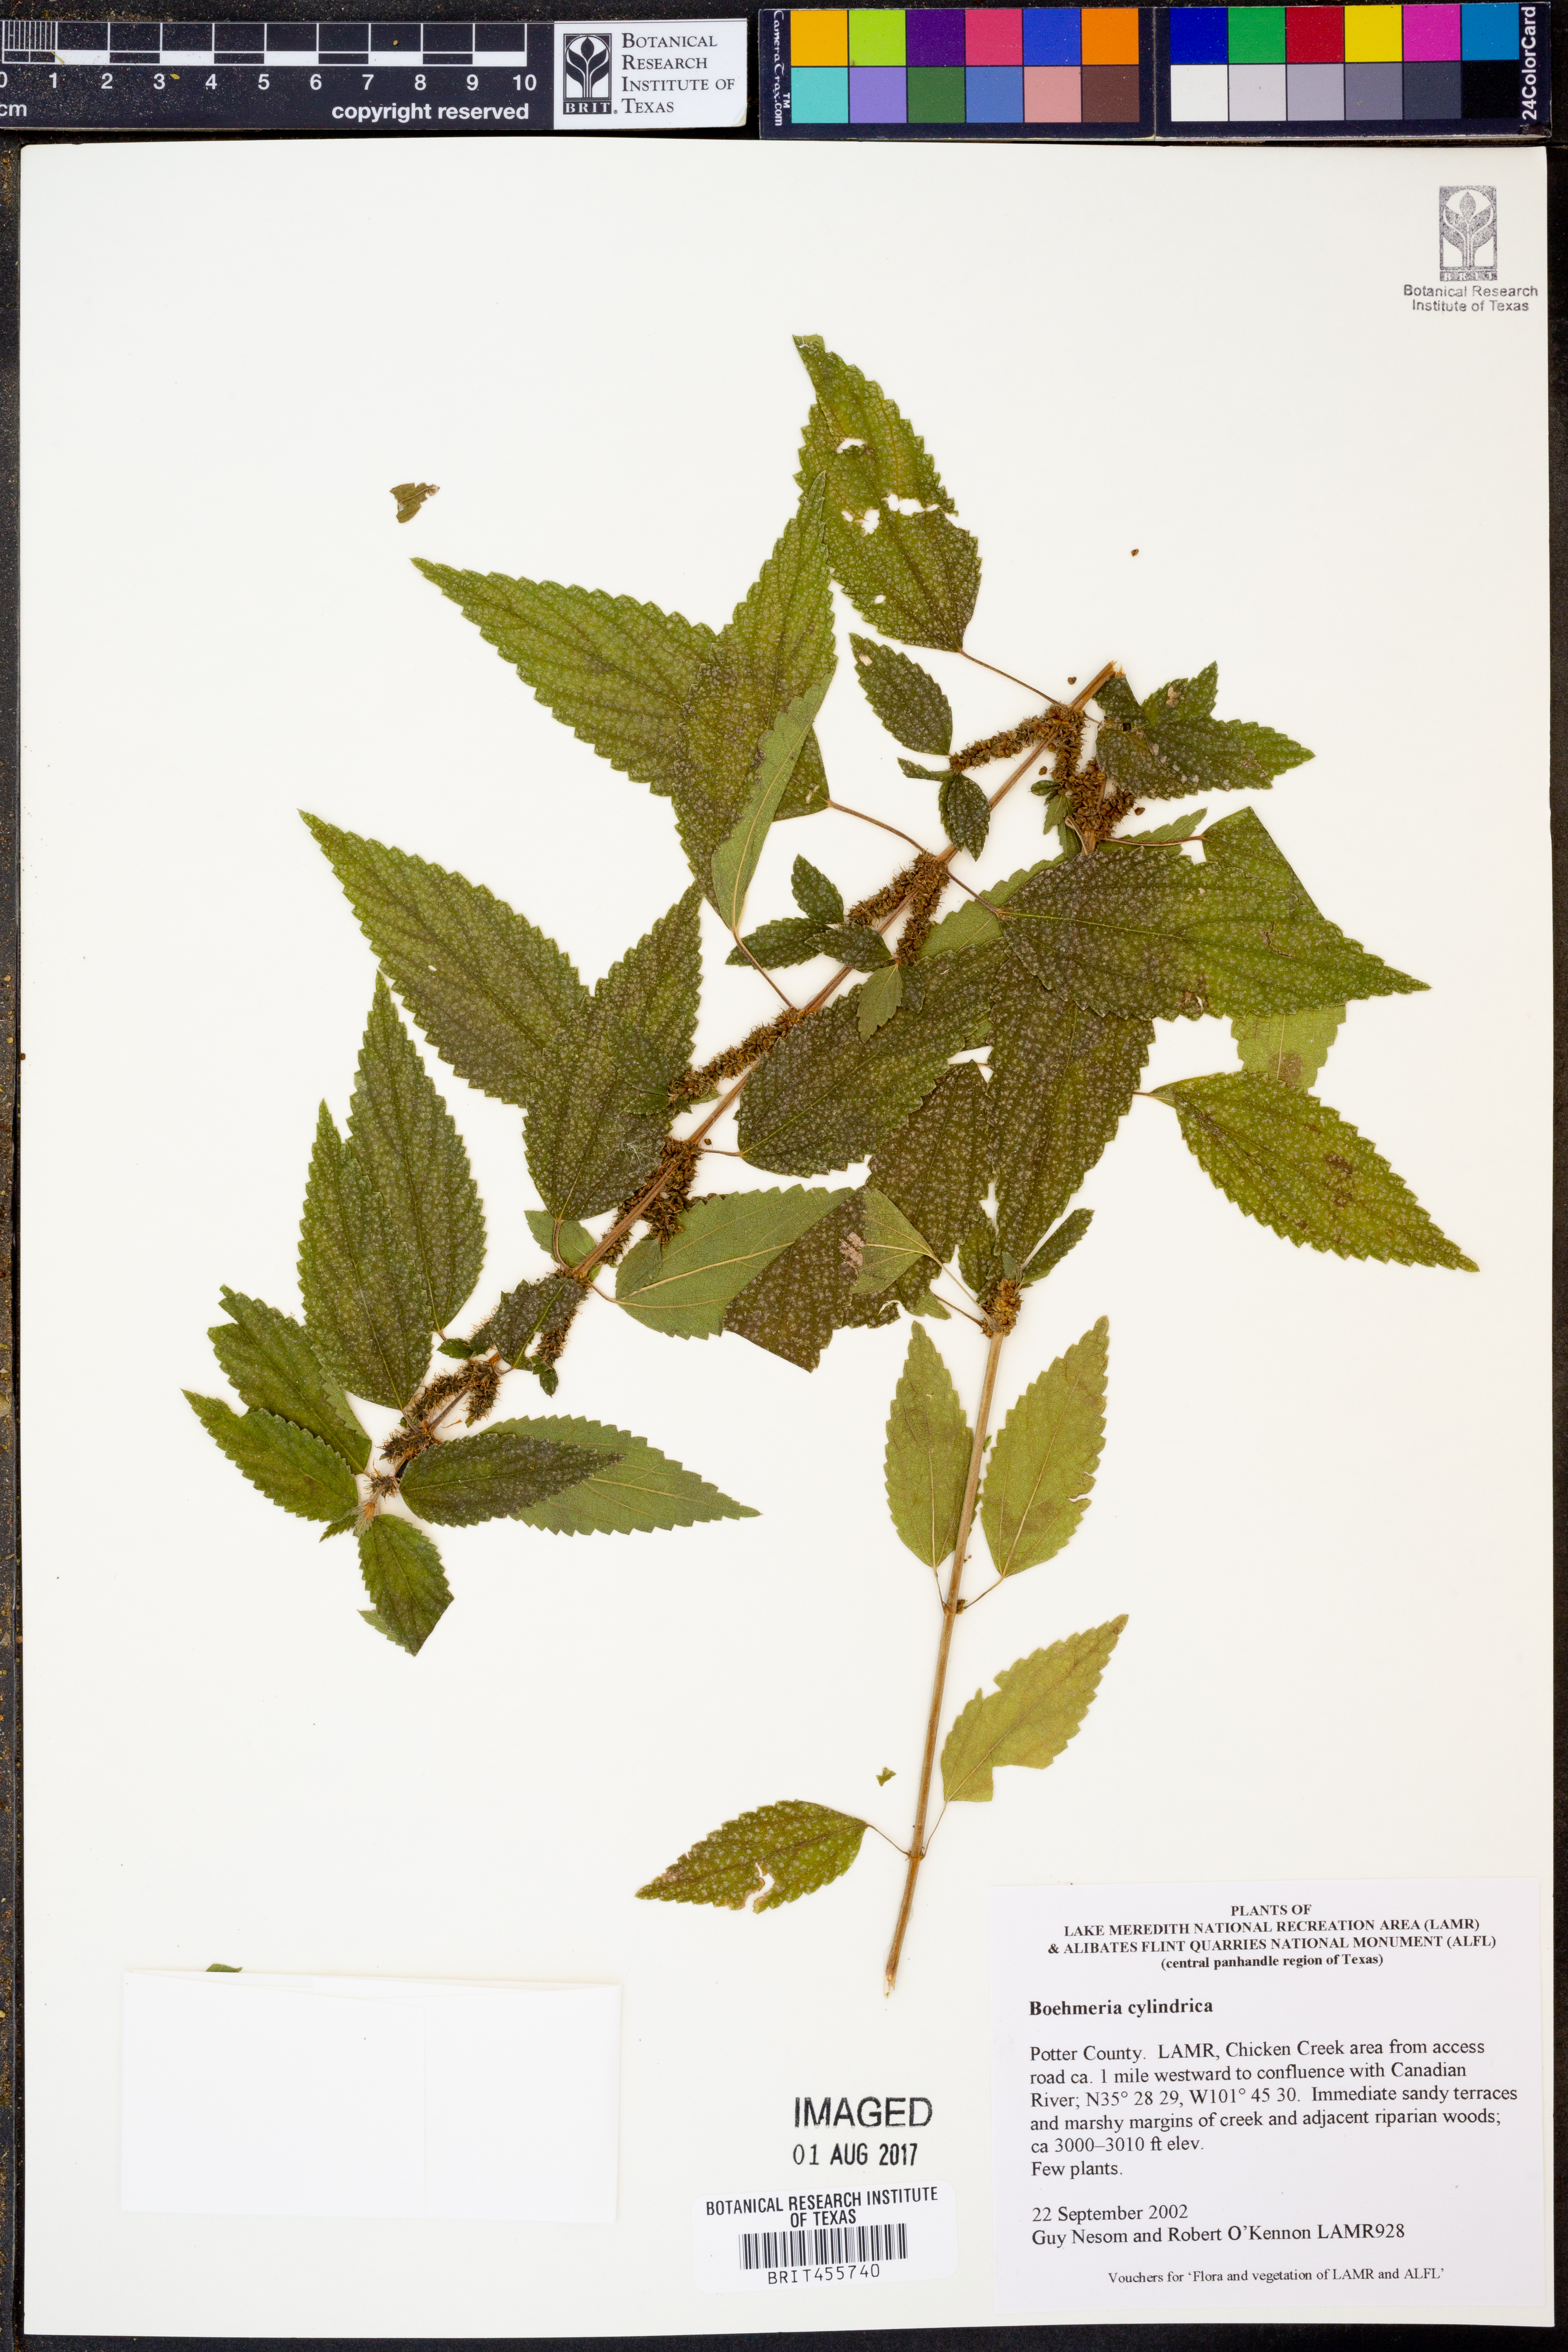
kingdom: Plantae
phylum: Tracheophyta
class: Magnoliopsida
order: Rosales
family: Urticaceae
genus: Boehmeria
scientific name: Boehmeria cylindrica
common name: Bog-hemp
